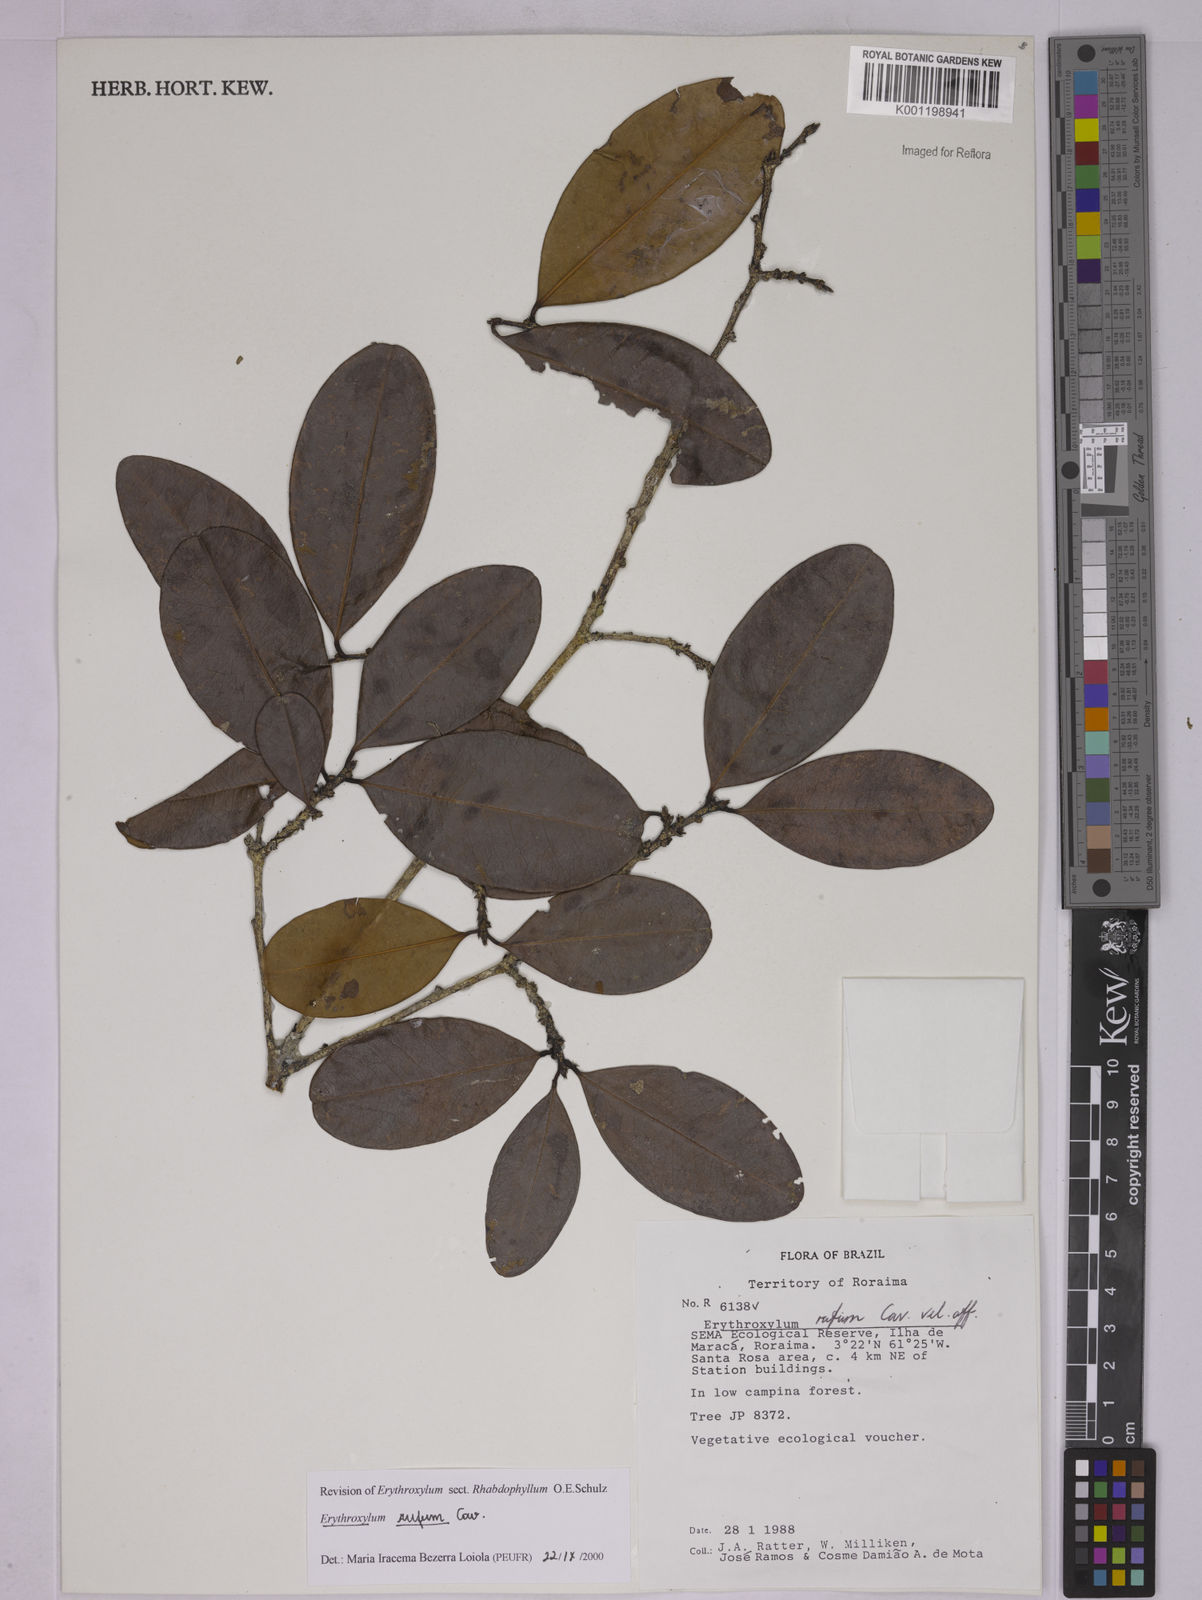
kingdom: Plantae
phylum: Tracheophyta
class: Magnoliopsida
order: Malpighiales
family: Erythroxylaceae
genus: Erythroxylum
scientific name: Erythroxylum rufum
